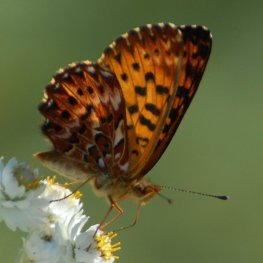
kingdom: Animalia
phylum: Arthropoda
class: Insecta
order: Lepidoptera
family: Nymphalidae
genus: Boloria
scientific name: Boloria chariclea
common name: Arctic Fritillary
